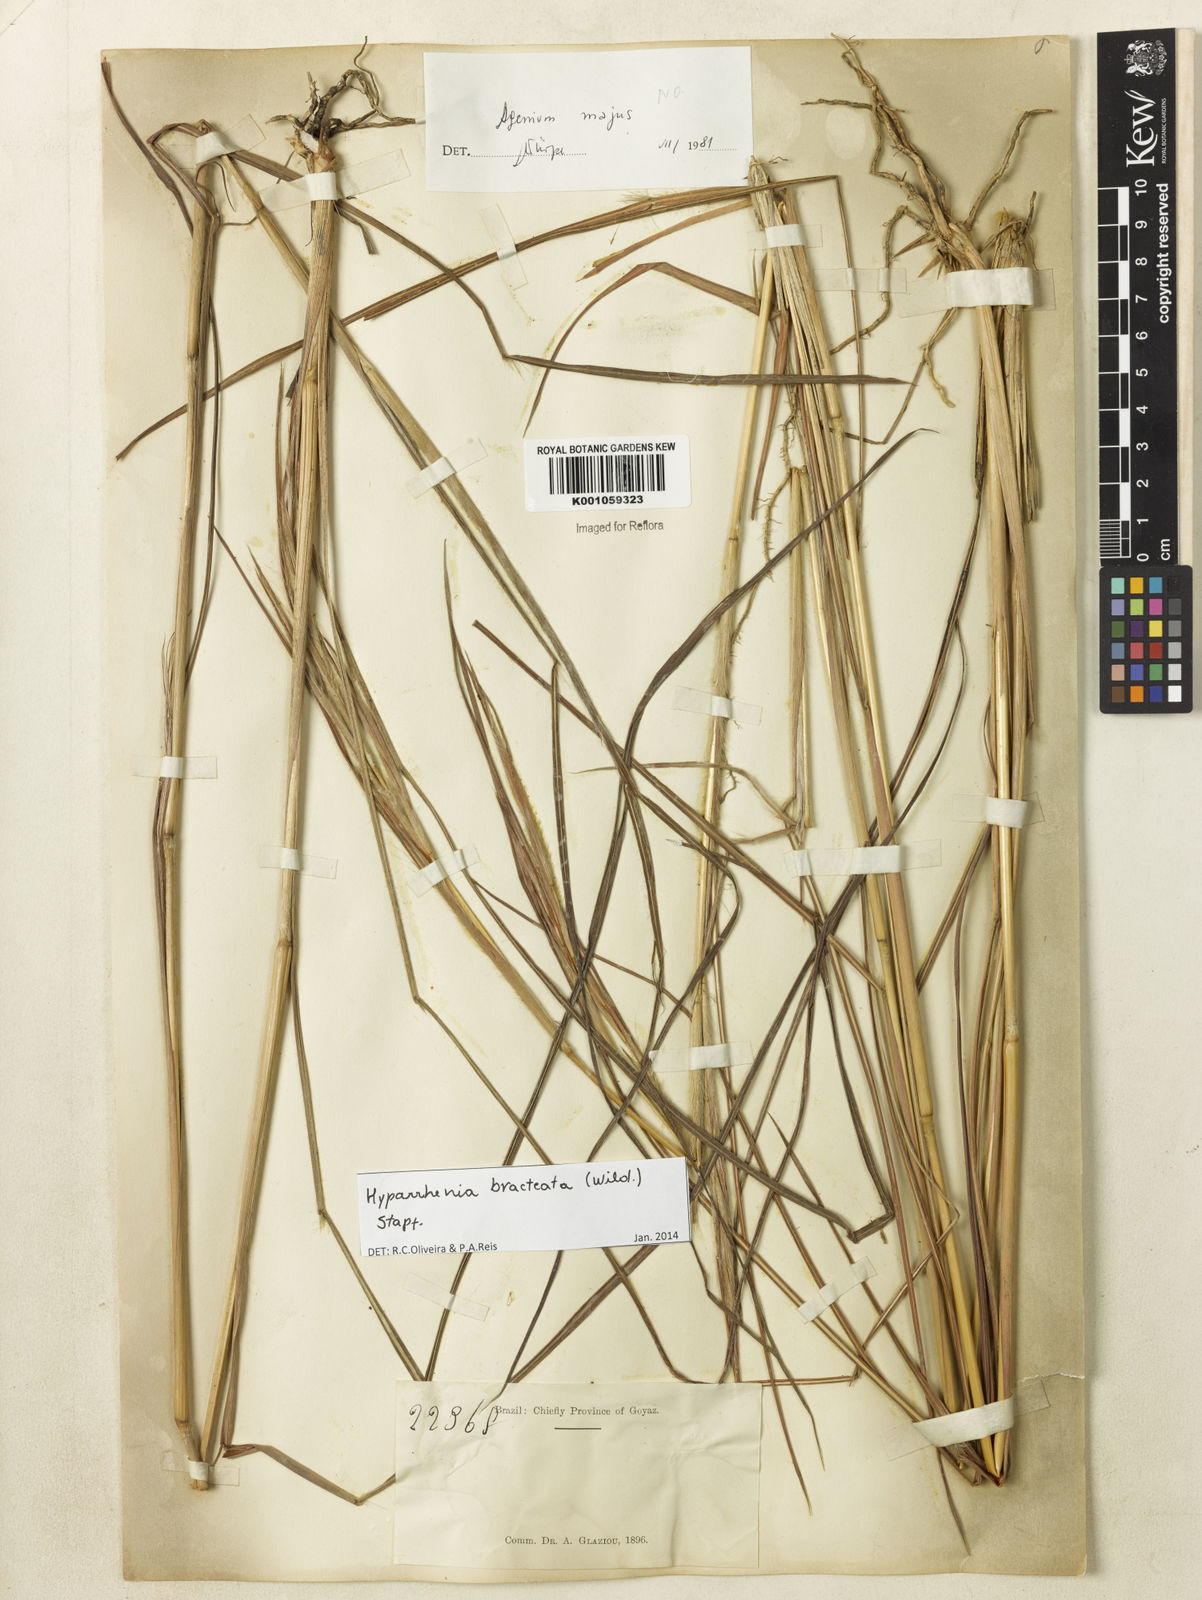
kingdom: Plantae
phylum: Tracheophyta
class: Liliopsida
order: Poales
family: Poaceae
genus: Hyparrhenia
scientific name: Hyparrhenia bracteata
